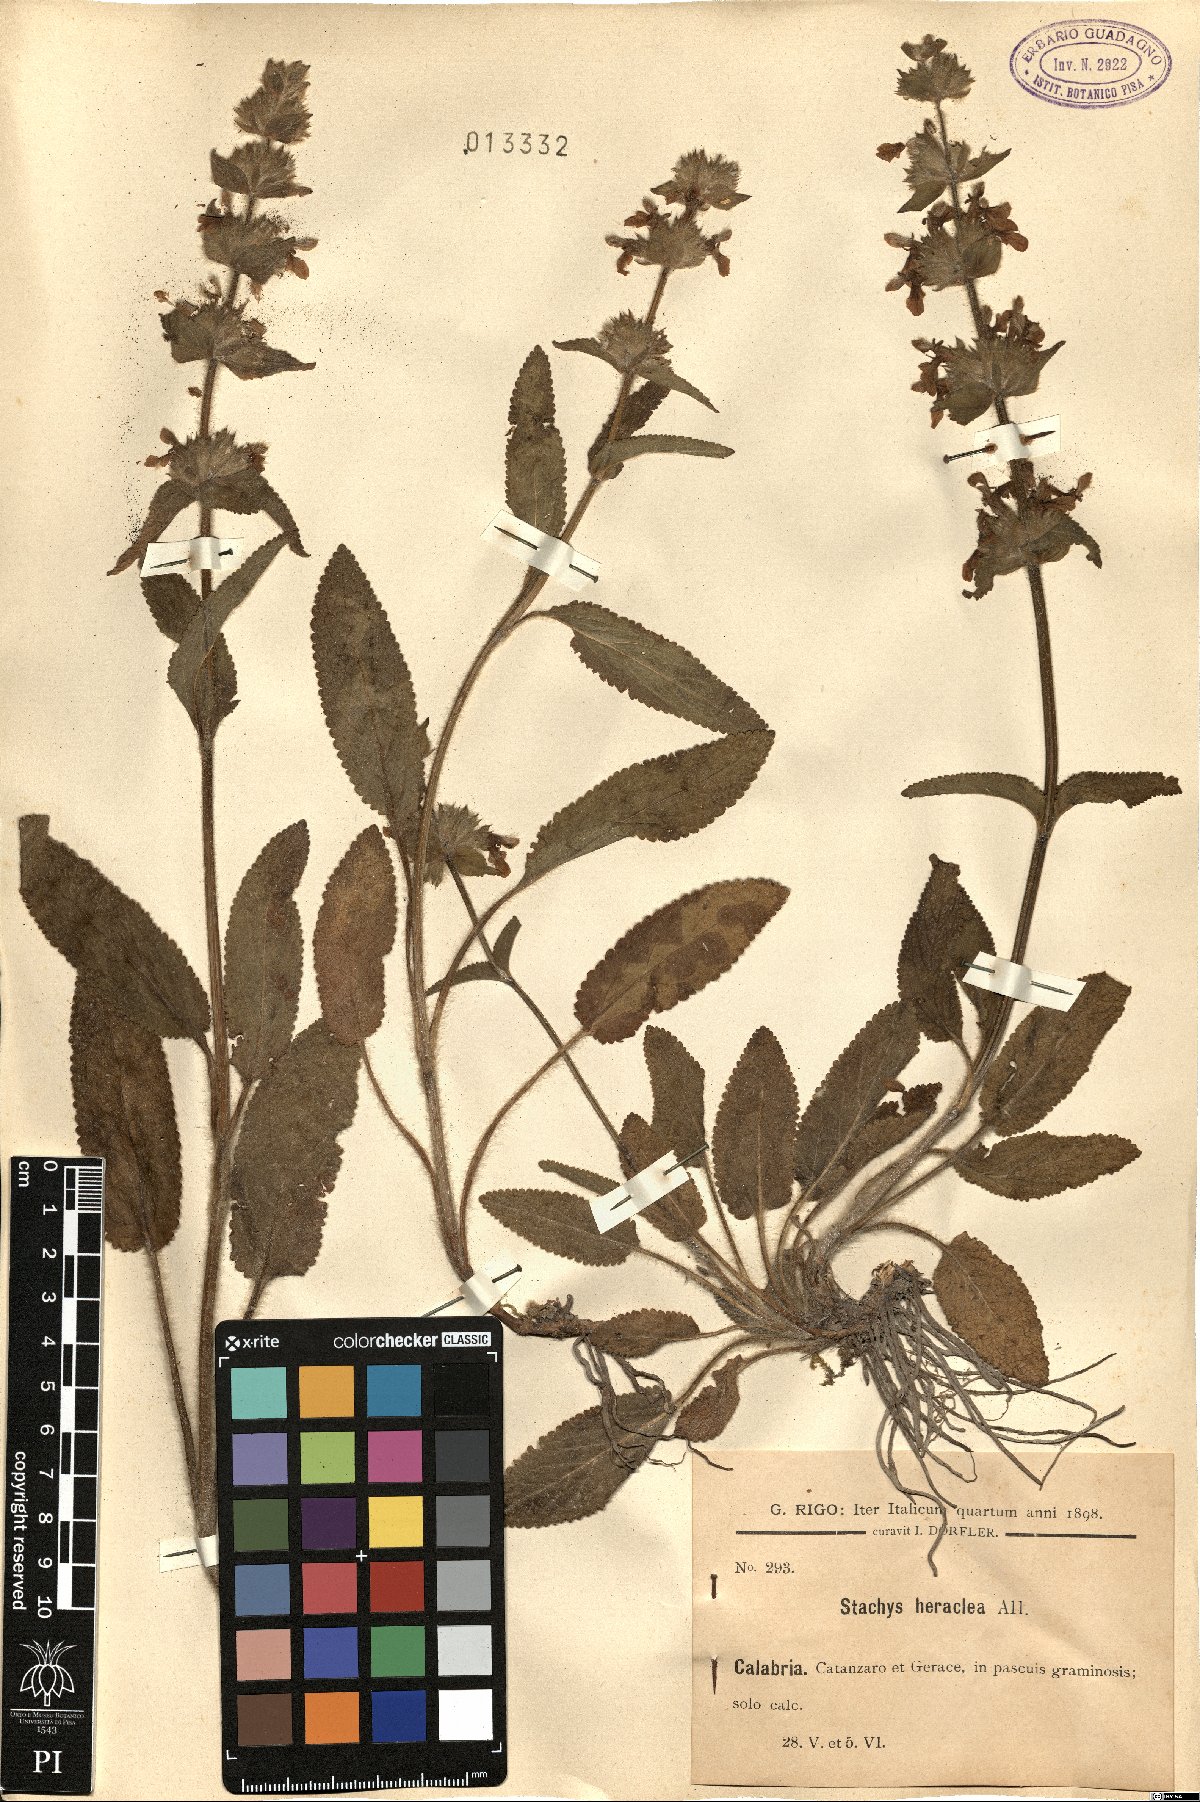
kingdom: Plantae
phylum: Tracheophyta
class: Magnoliopsida
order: Lamiales
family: Lamiaceae
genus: Stachys
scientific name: Stachys heraclea
